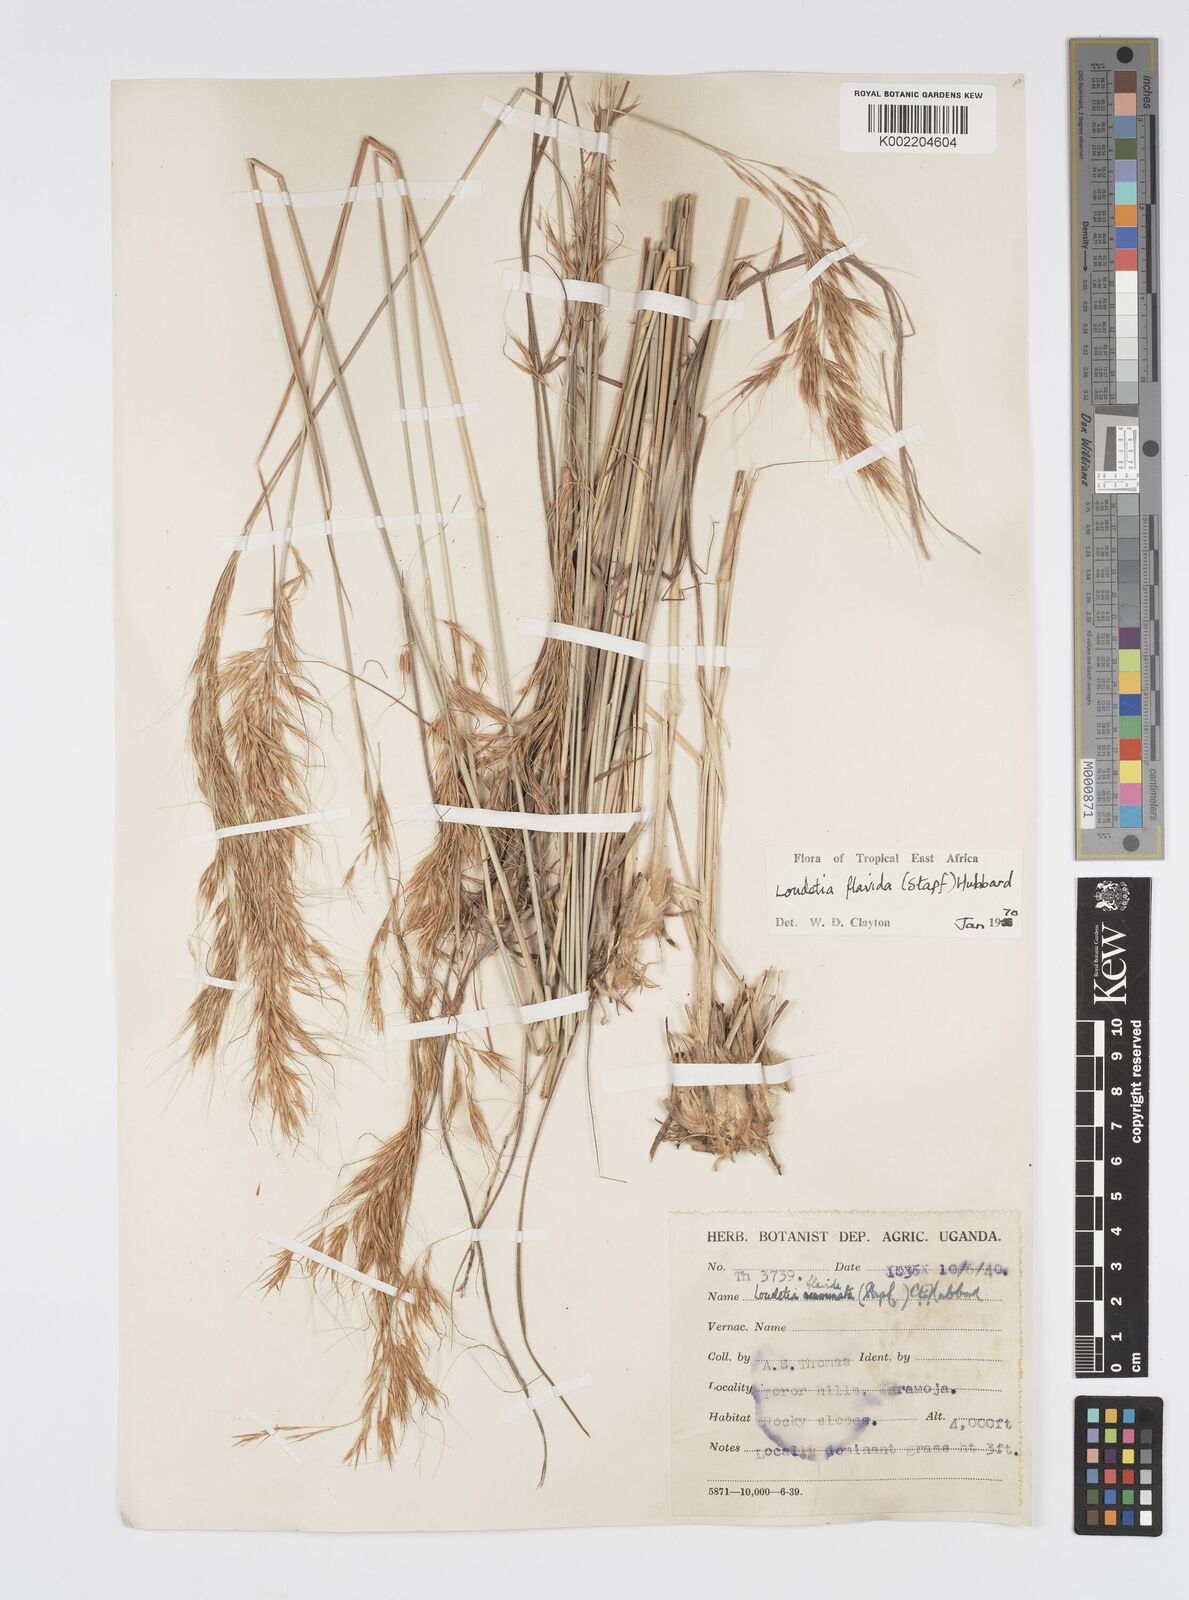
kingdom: Plantae
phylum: Tracheophyta
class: Liliopsida
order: Poales
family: Poaceae
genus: Loudetia
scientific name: Loudetia flavida
